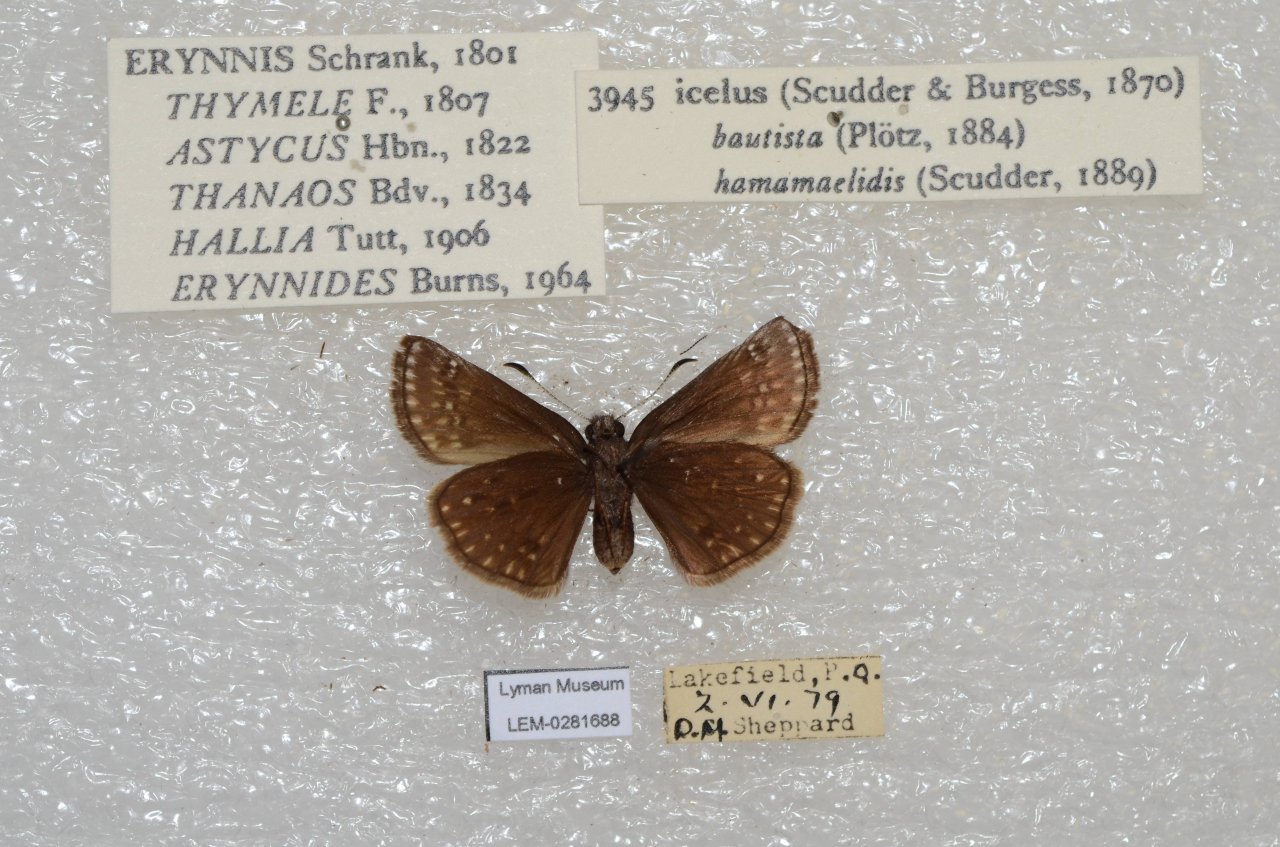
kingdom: Animalia
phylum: Arthropoda
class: Insecta
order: Lepidoptera
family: Hesperiidae
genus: Erynnis
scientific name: Erynnis icelus
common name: Dreamy Duskywing
